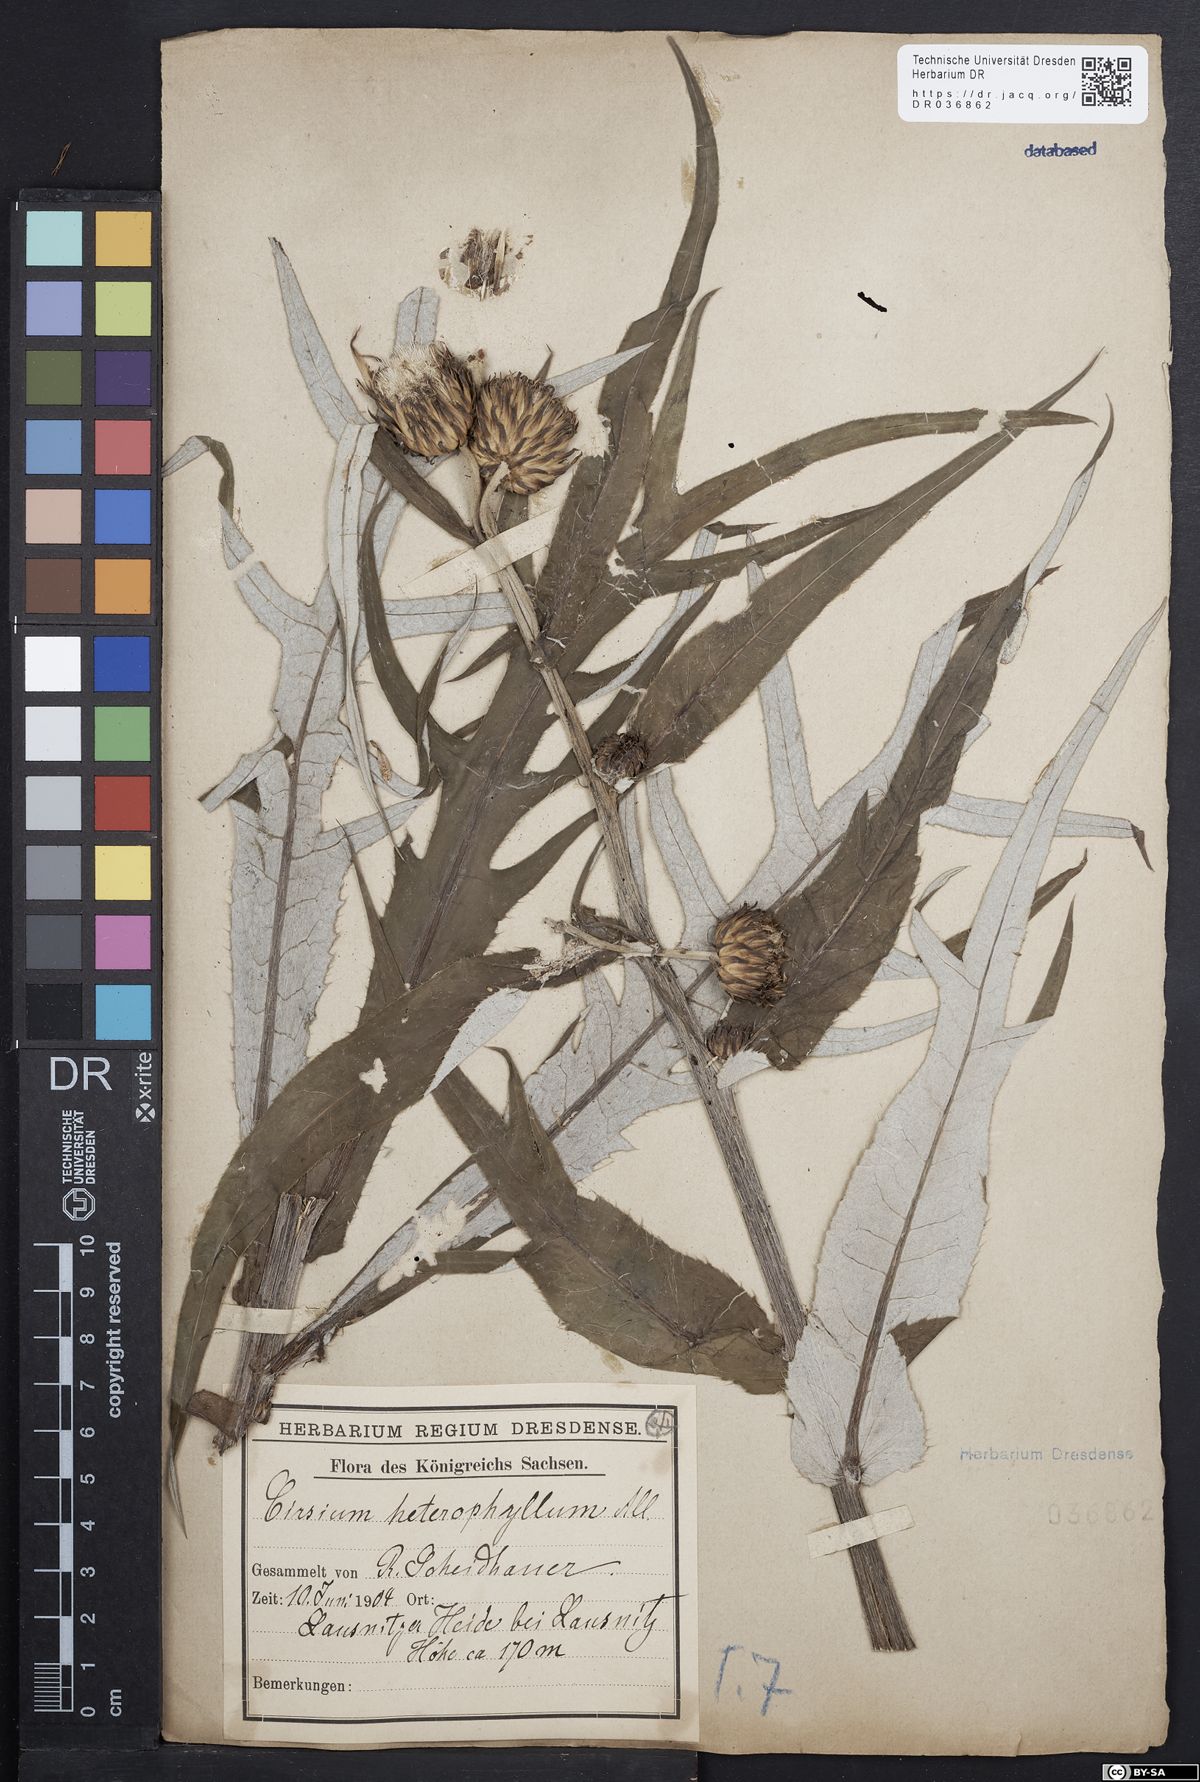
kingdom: Plantae
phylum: Tracheophyta
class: Magnoliopsida
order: Asterales
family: Asteraceae
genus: Cirsium
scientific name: Cirsium helenioides
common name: Melancholy thistle
